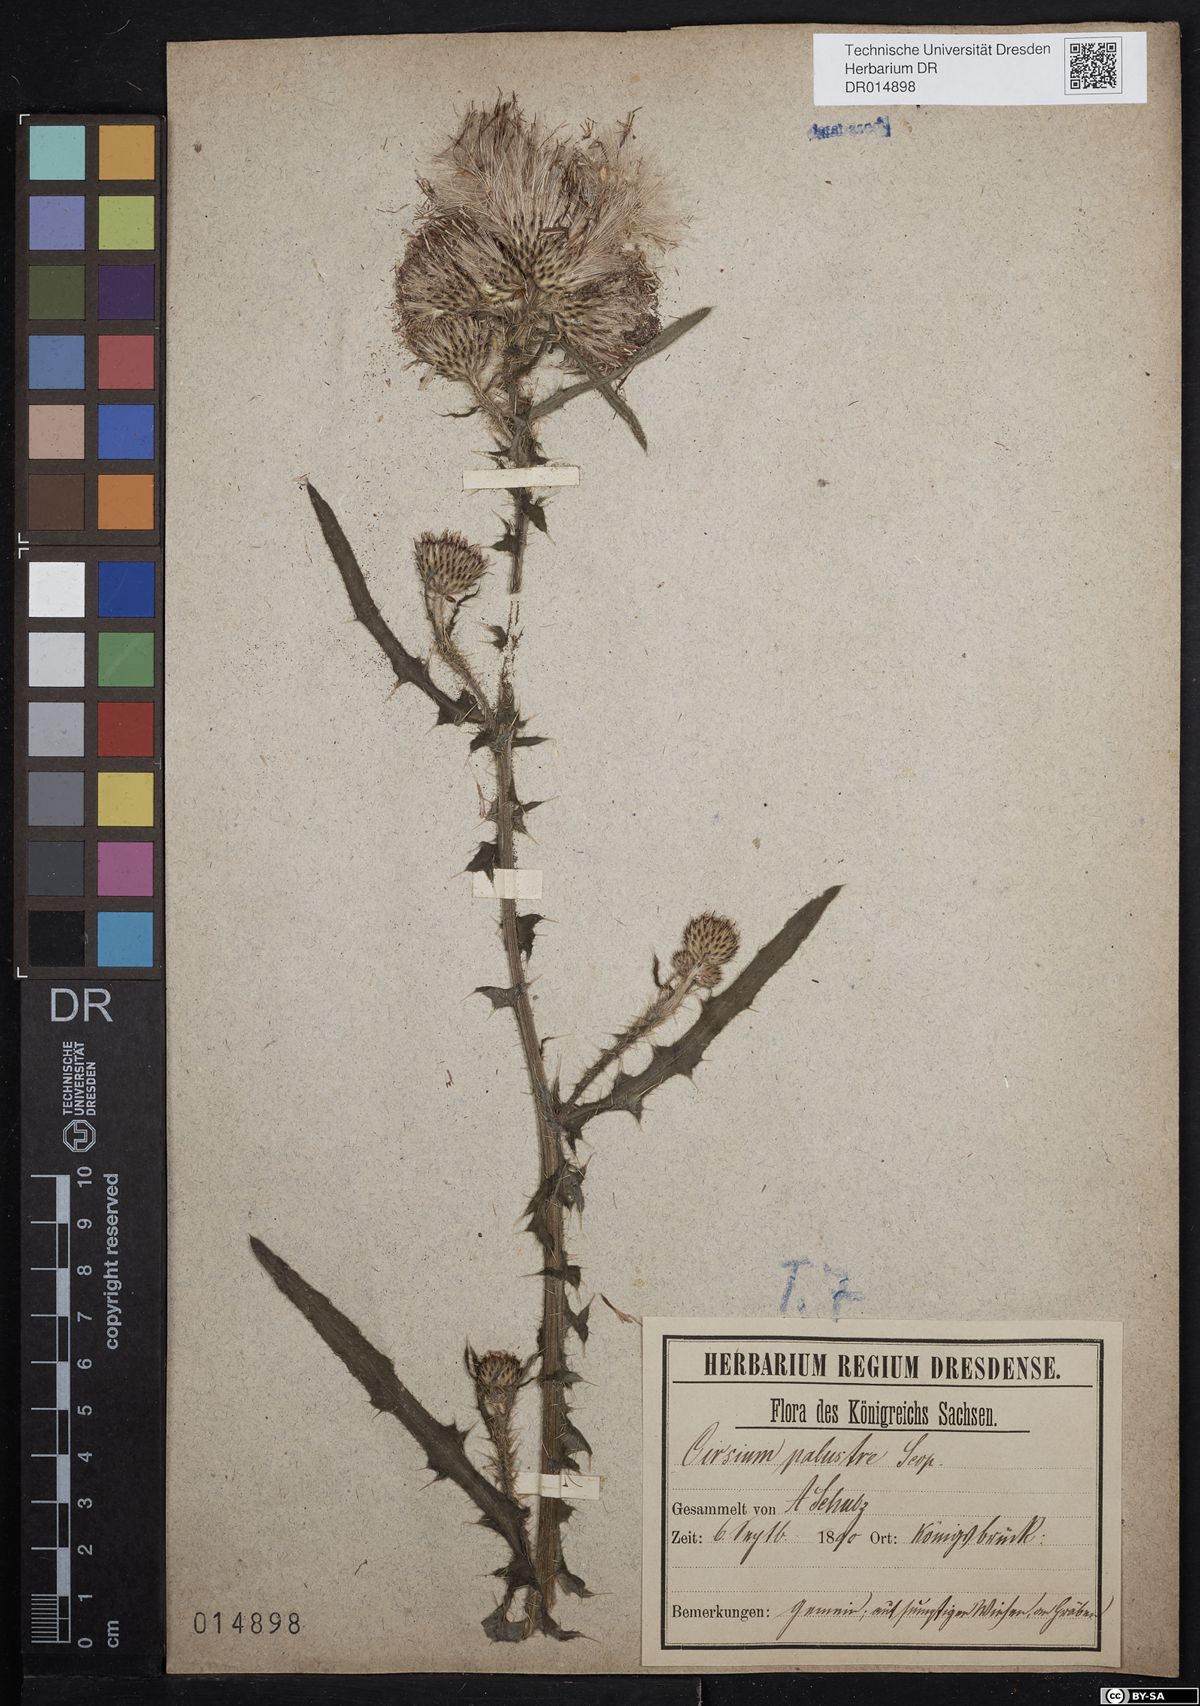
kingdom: Plantae
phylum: Tracheophyta
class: Magnoliopsida
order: Asterales
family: Asteraceae
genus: Cirsium
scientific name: Cirsium palustre
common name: Marsh thistle
